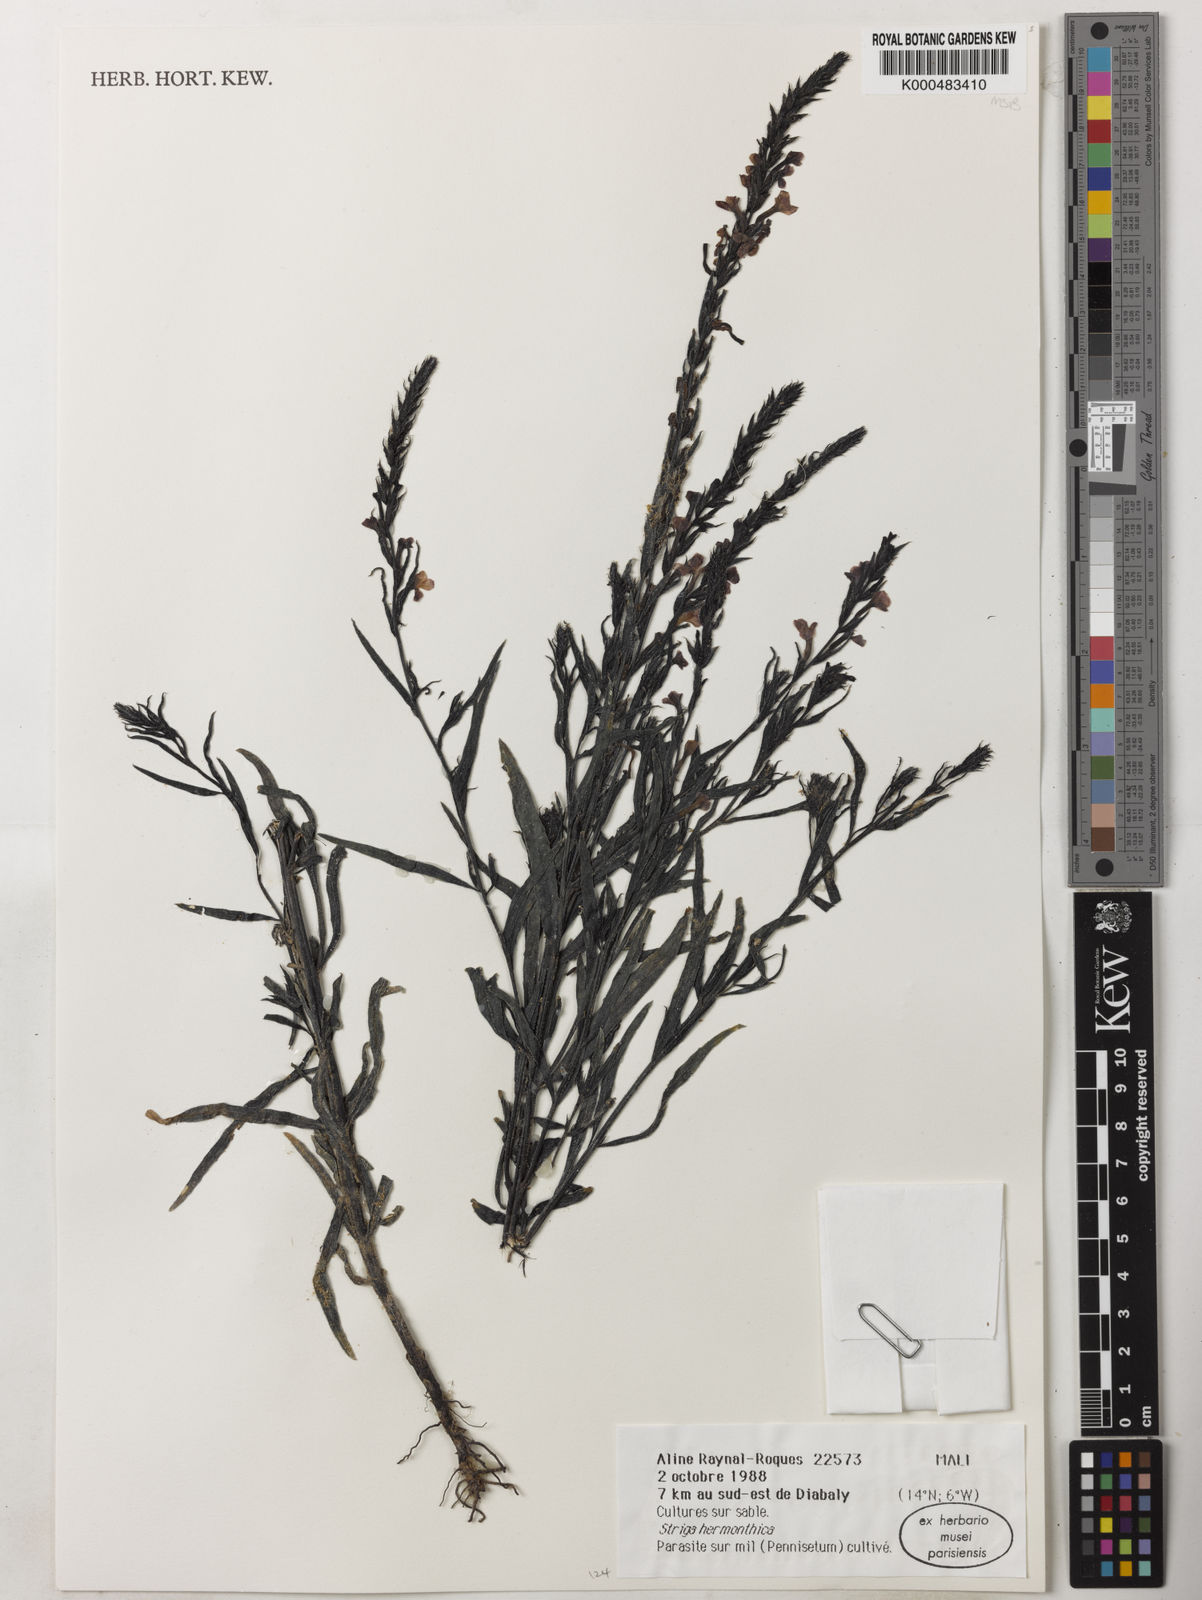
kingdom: Plantae
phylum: Tracheophyta
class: Magnoliopsida
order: Lamiales
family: Orobanchaceae
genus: Striga
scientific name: Striga hermonthica
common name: Purple witchweed
